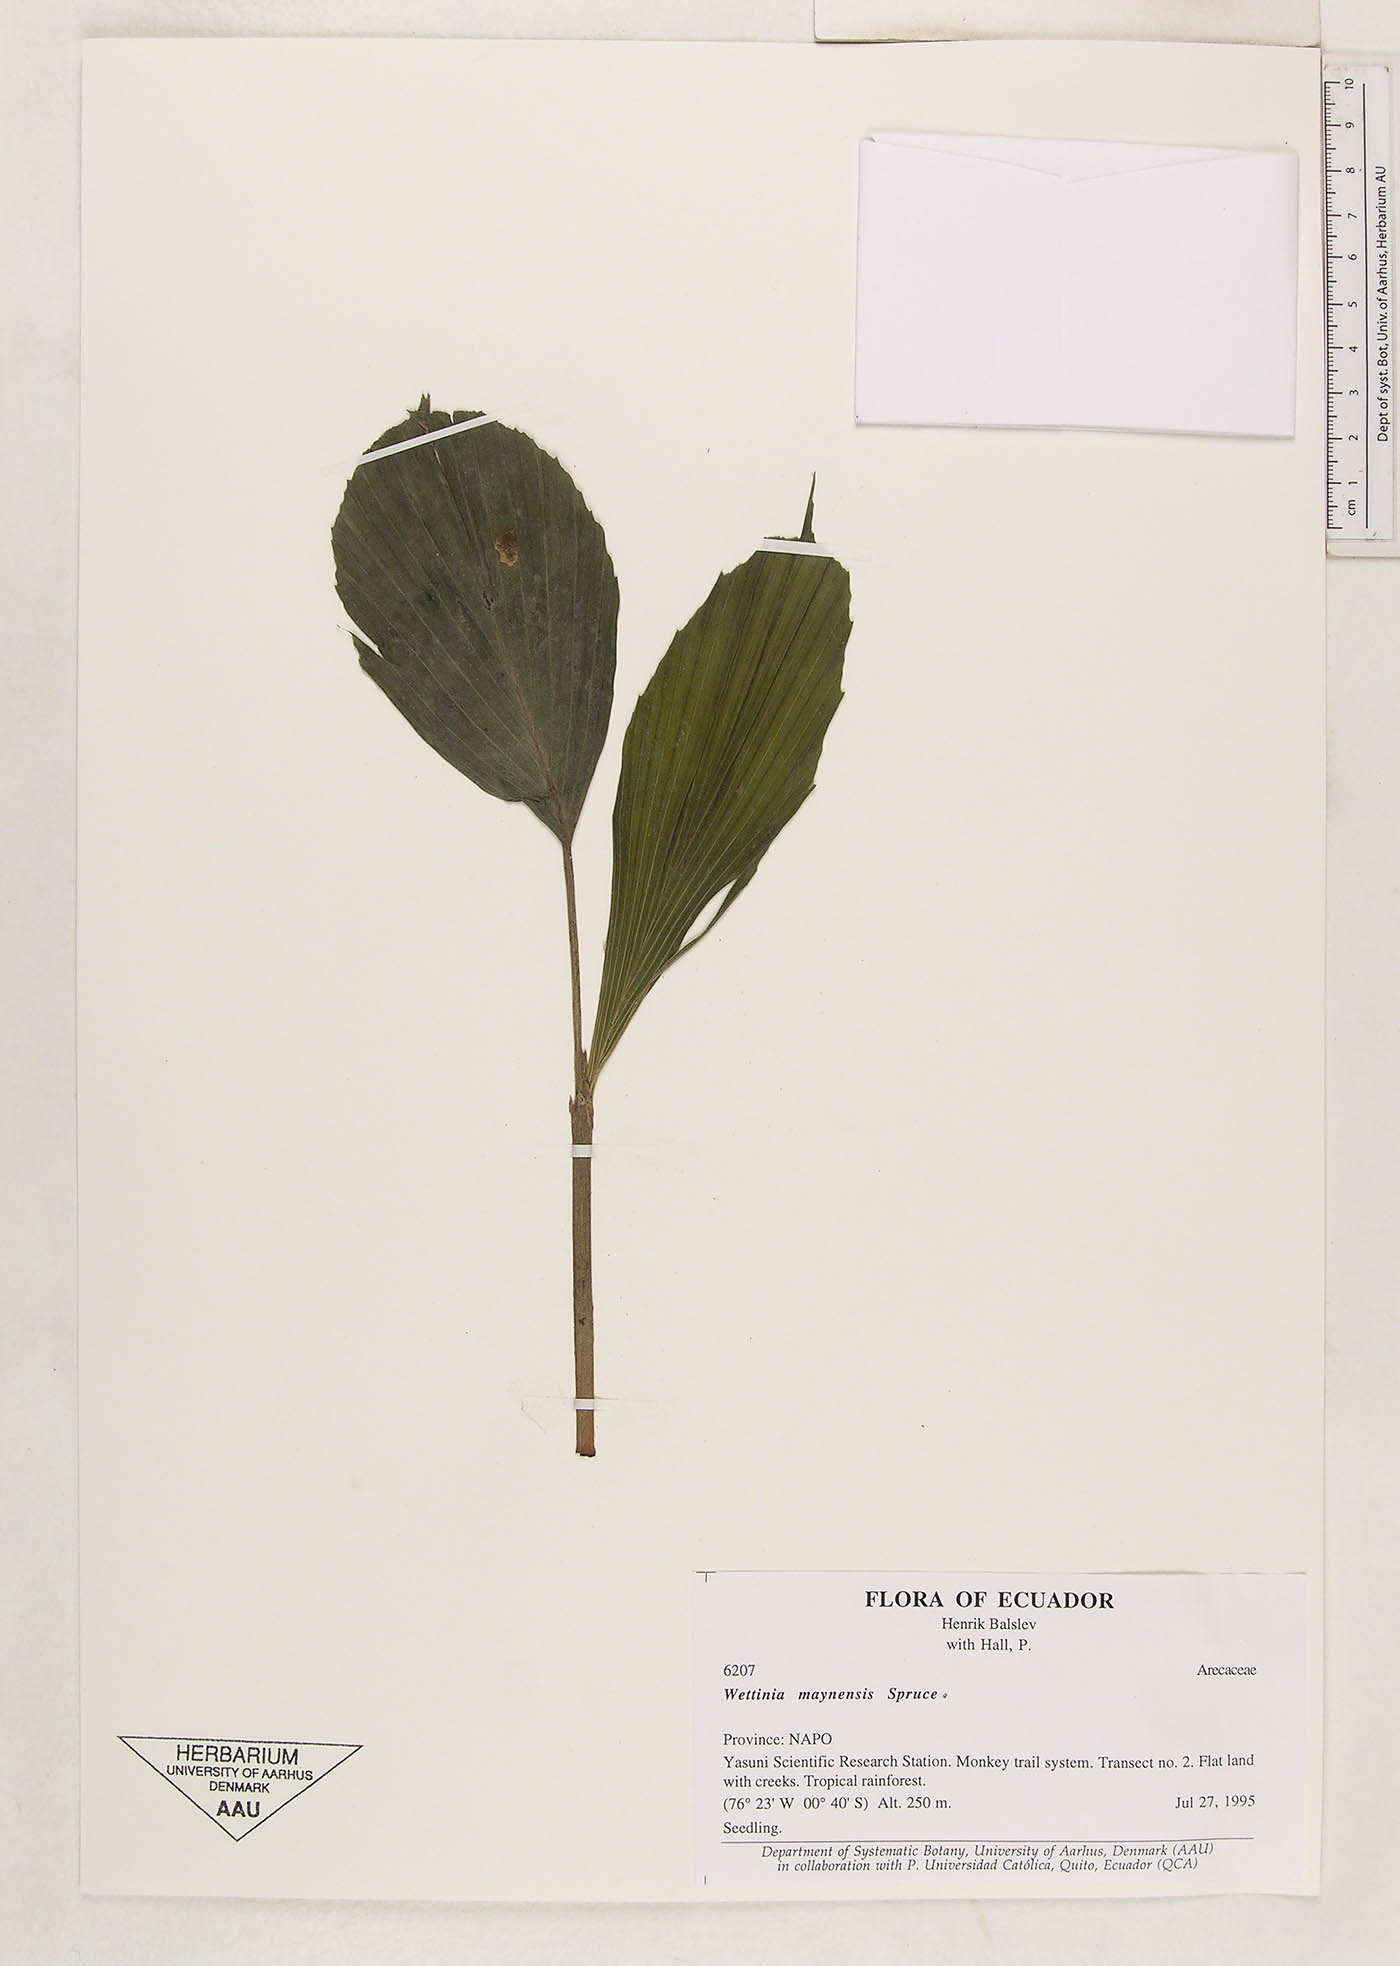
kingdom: Plantae
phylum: Tracheophyta
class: Liliopsida
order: Arecales
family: Arecaceae
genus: Wettinia
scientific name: Wettinia maynensis
